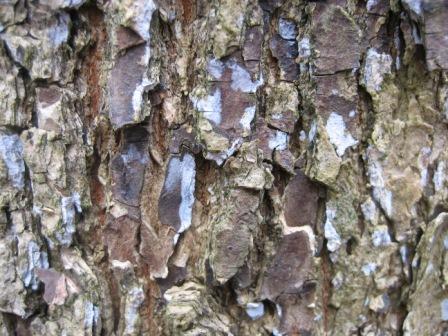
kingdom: Fungi
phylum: Basidiomycota
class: Agaricomycetes
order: Polyporales
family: Irpicaceae
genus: Ceriporia
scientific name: Ceriporia excelsa
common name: lilla voksporesvamp
